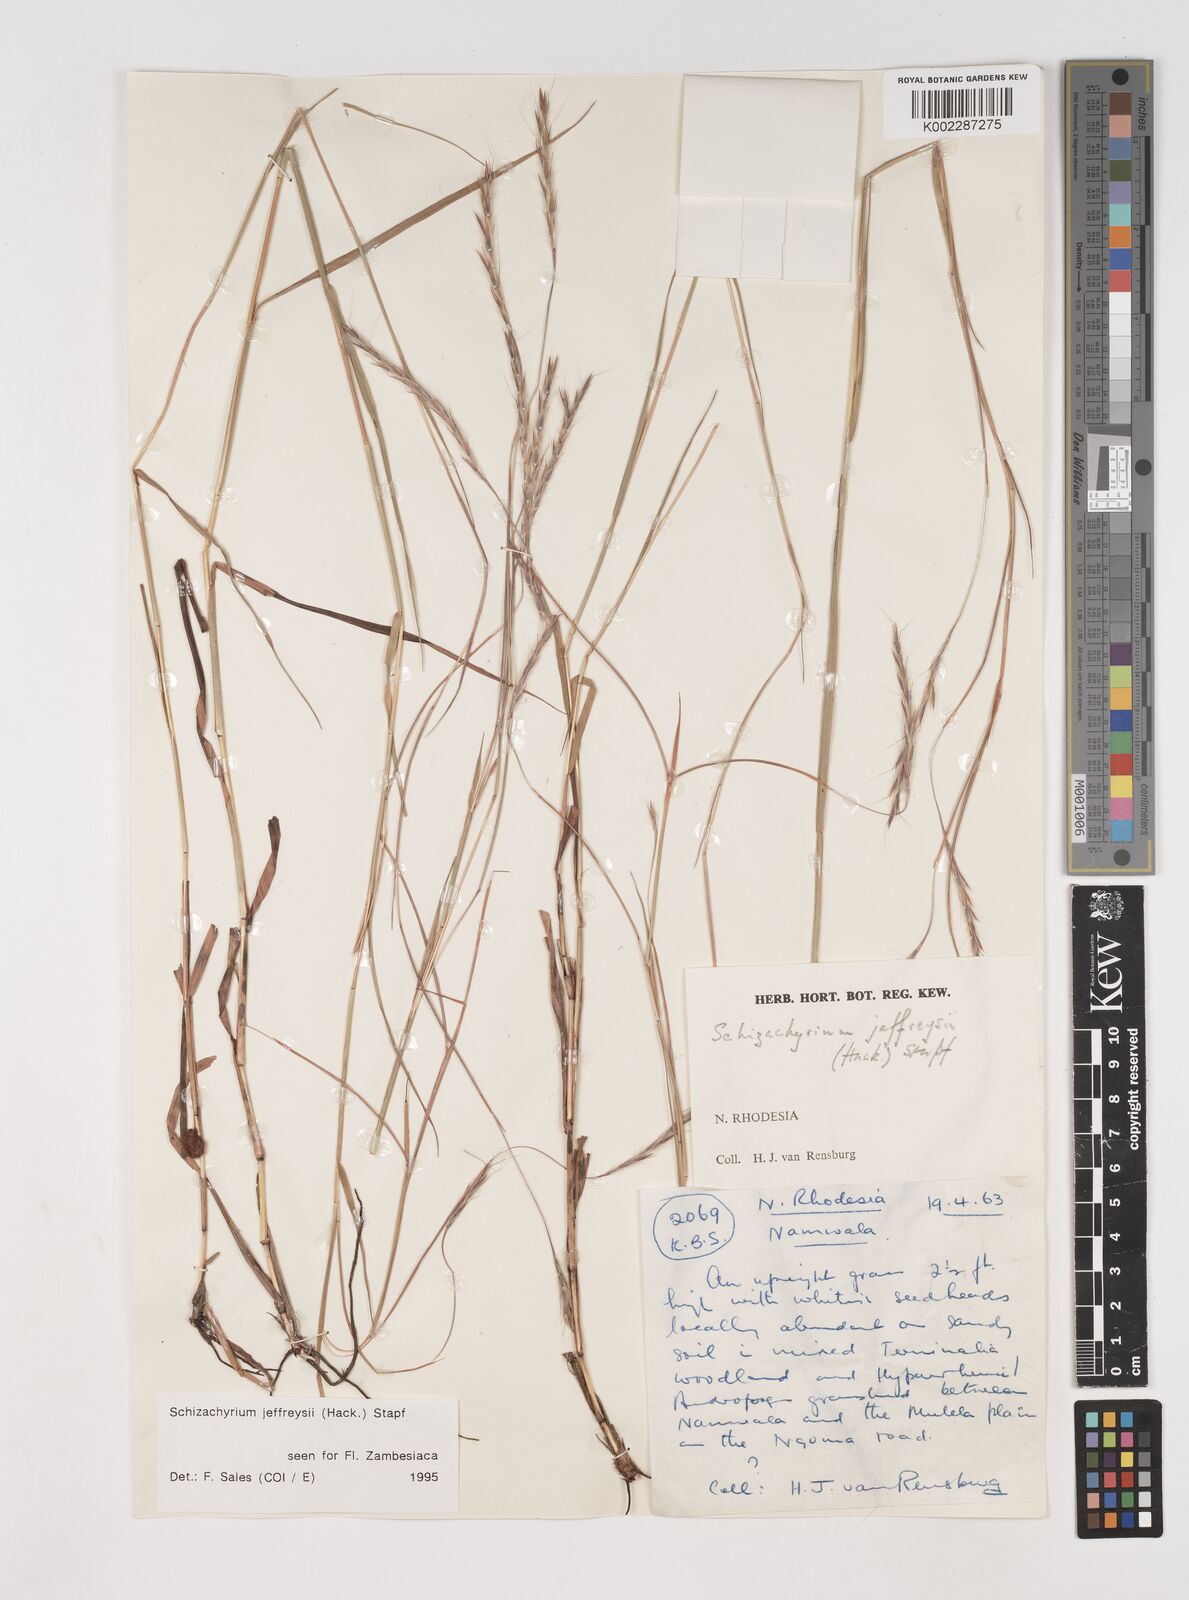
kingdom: Plantae
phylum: Tracheophyta
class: Liliopsida
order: Poales
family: Poaceae
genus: Schizachyrium
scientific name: Schizachyrium jeffreysii
